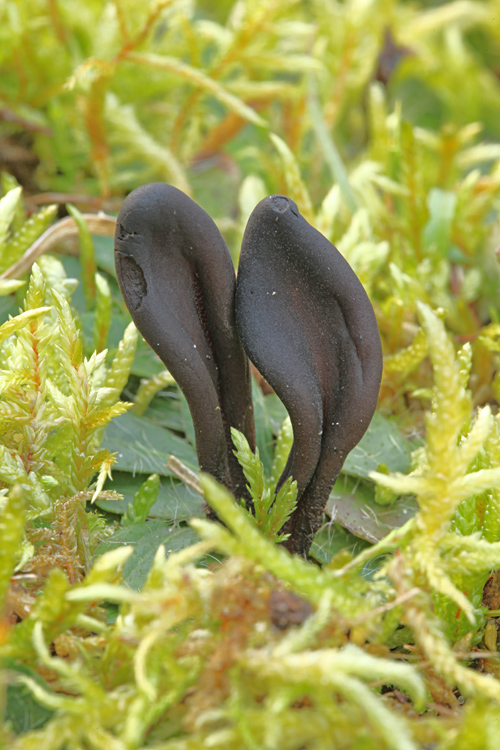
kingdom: Fungi
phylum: Ascomycota
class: Geoglossomycetes
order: Geoglossales
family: Geoglossaceae
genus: Geoglossum
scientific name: Geoglossum fallax
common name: småskællet jordtunge
